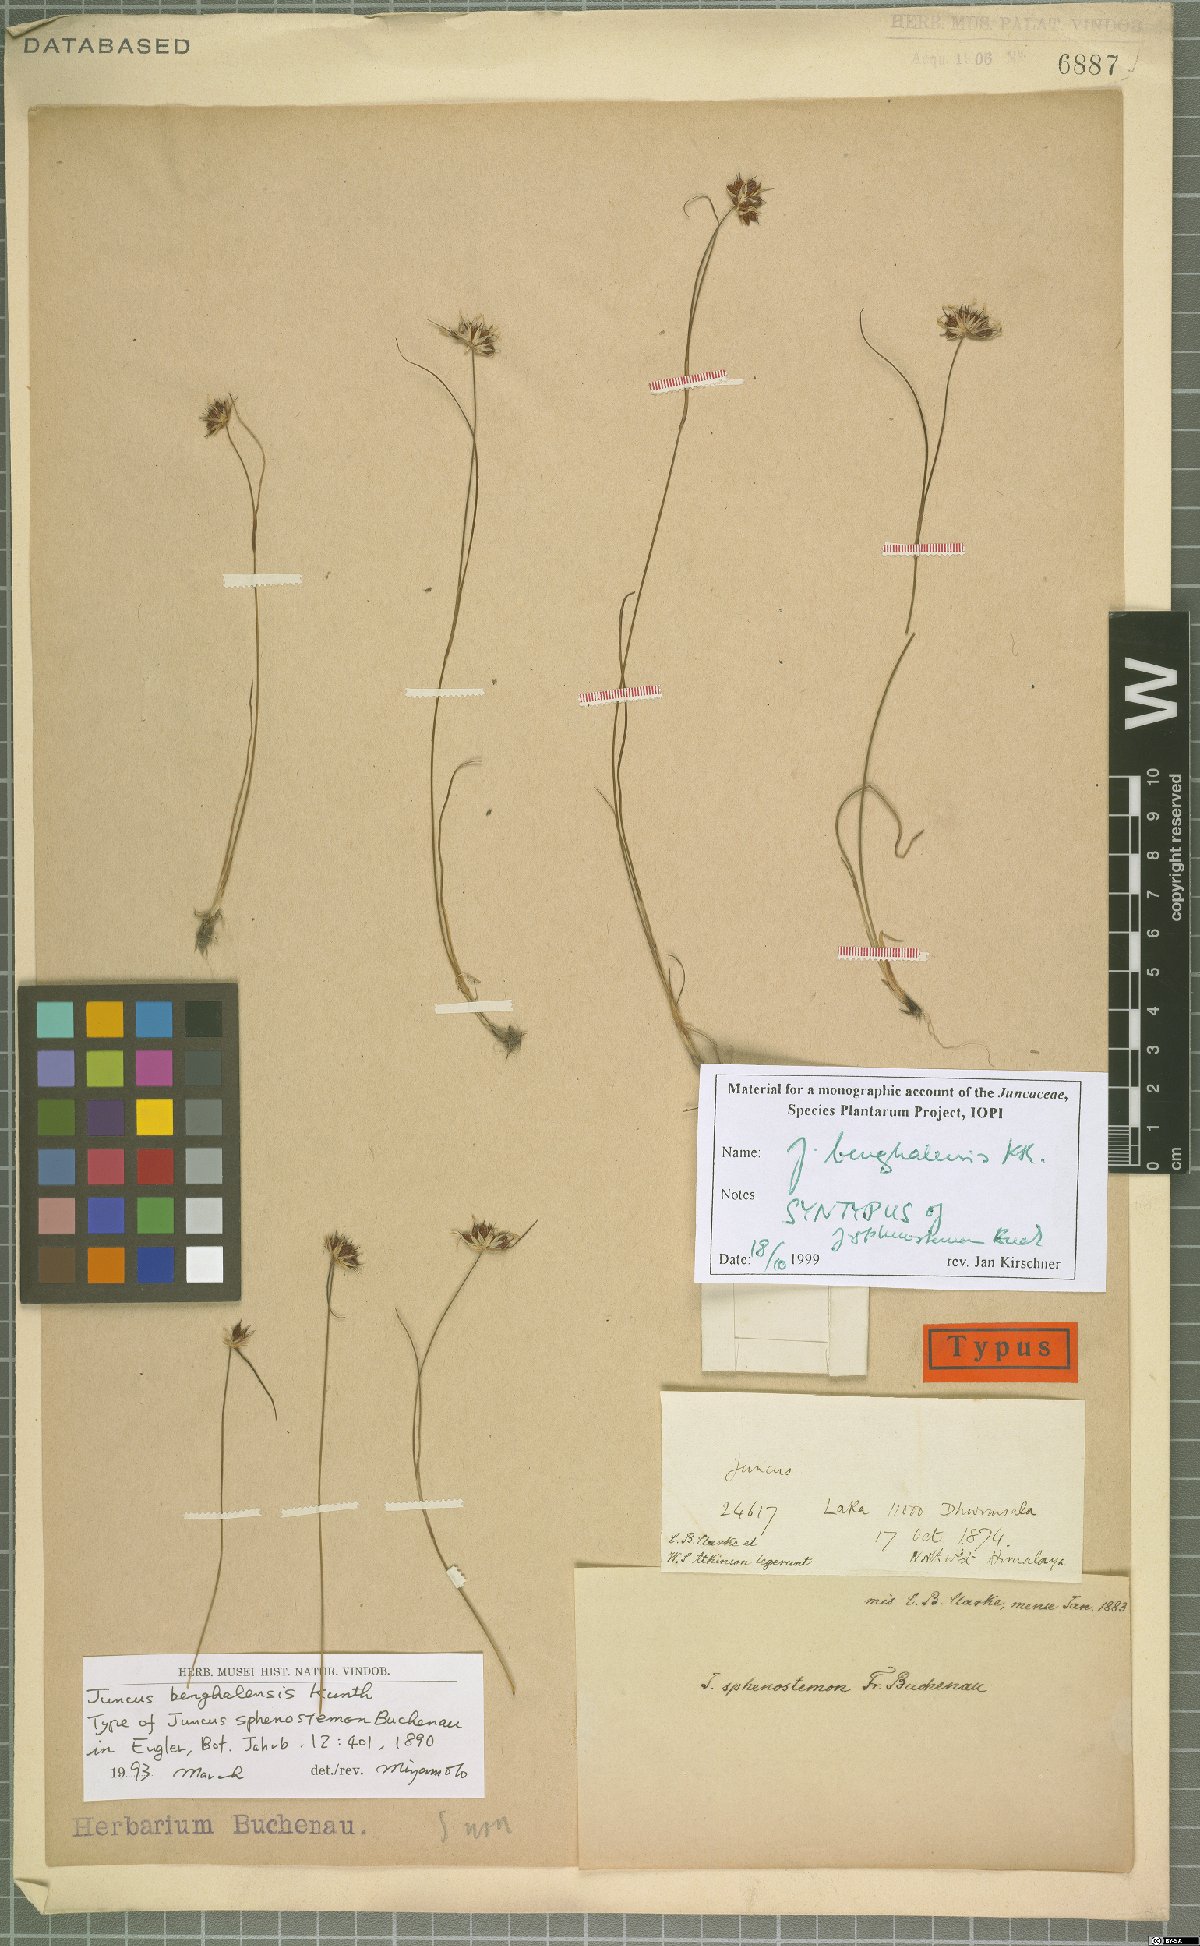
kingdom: Plantae
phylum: Tracheophyta
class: Liliopsida
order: Poales
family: Juncaceae
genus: Juncus
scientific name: Juncus benghalensis
